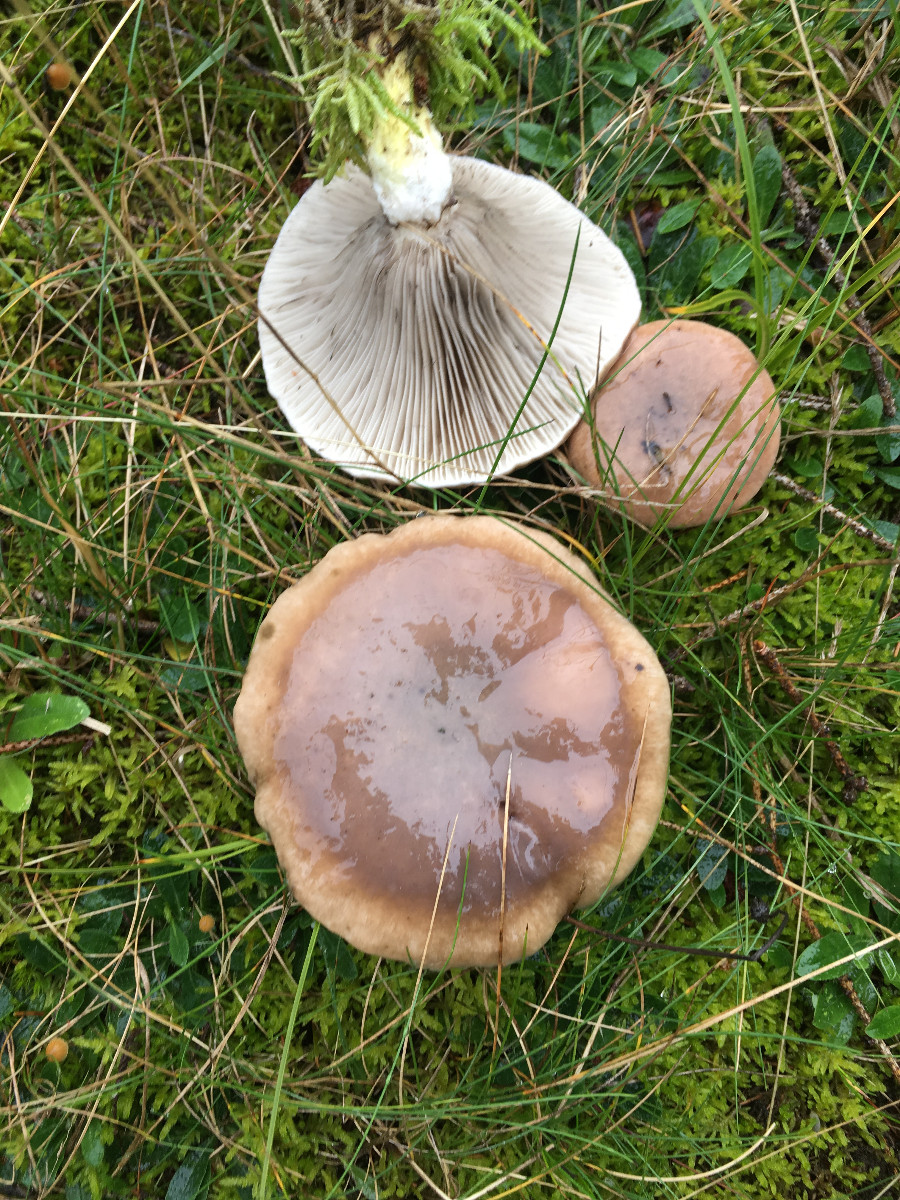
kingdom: Fungi
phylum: Basidiomycota
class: Agaricomycetes
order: Boletales
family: Gomphidiaceae
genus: Gomphidius
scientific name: Gomphidius glutinosus
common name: grå slimslør
